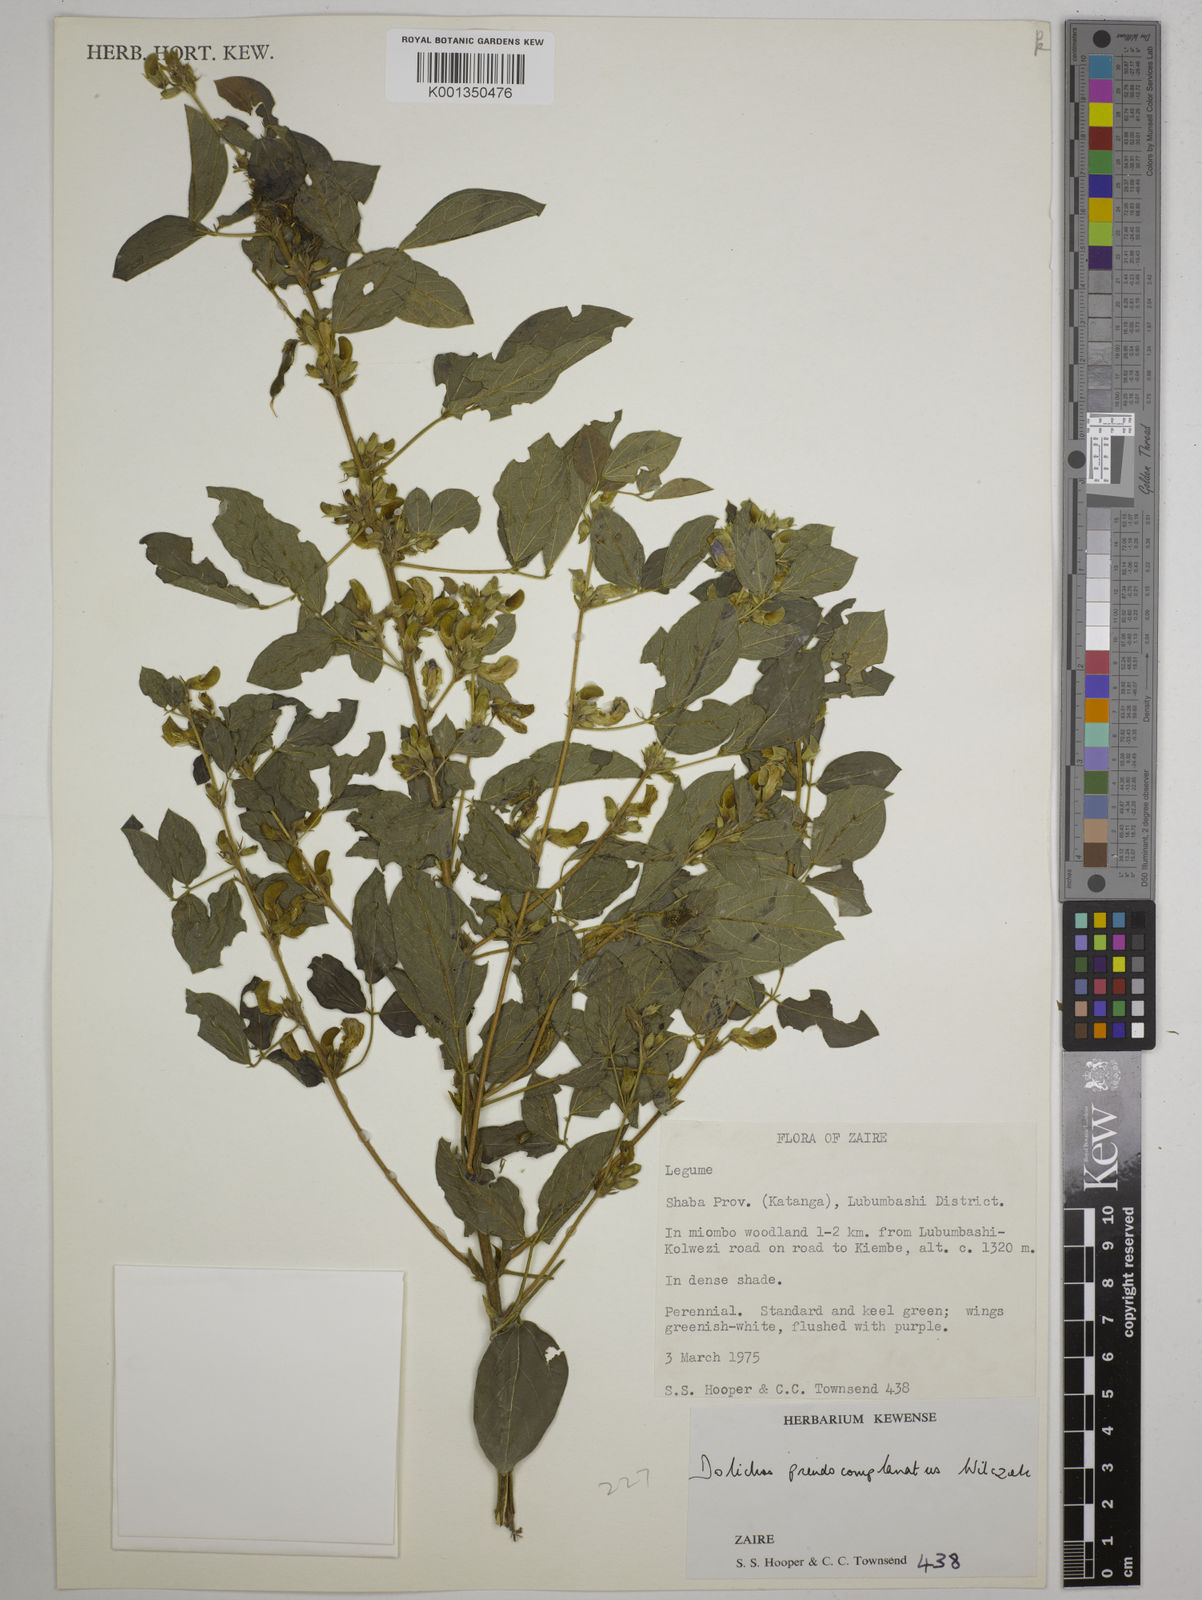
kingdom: Plantae
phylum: Tracheophyta
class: Magnoliopsida
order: Fabales
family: Fabaceae
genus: Dolichos
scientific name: Dolichos pseudocomplanatus
